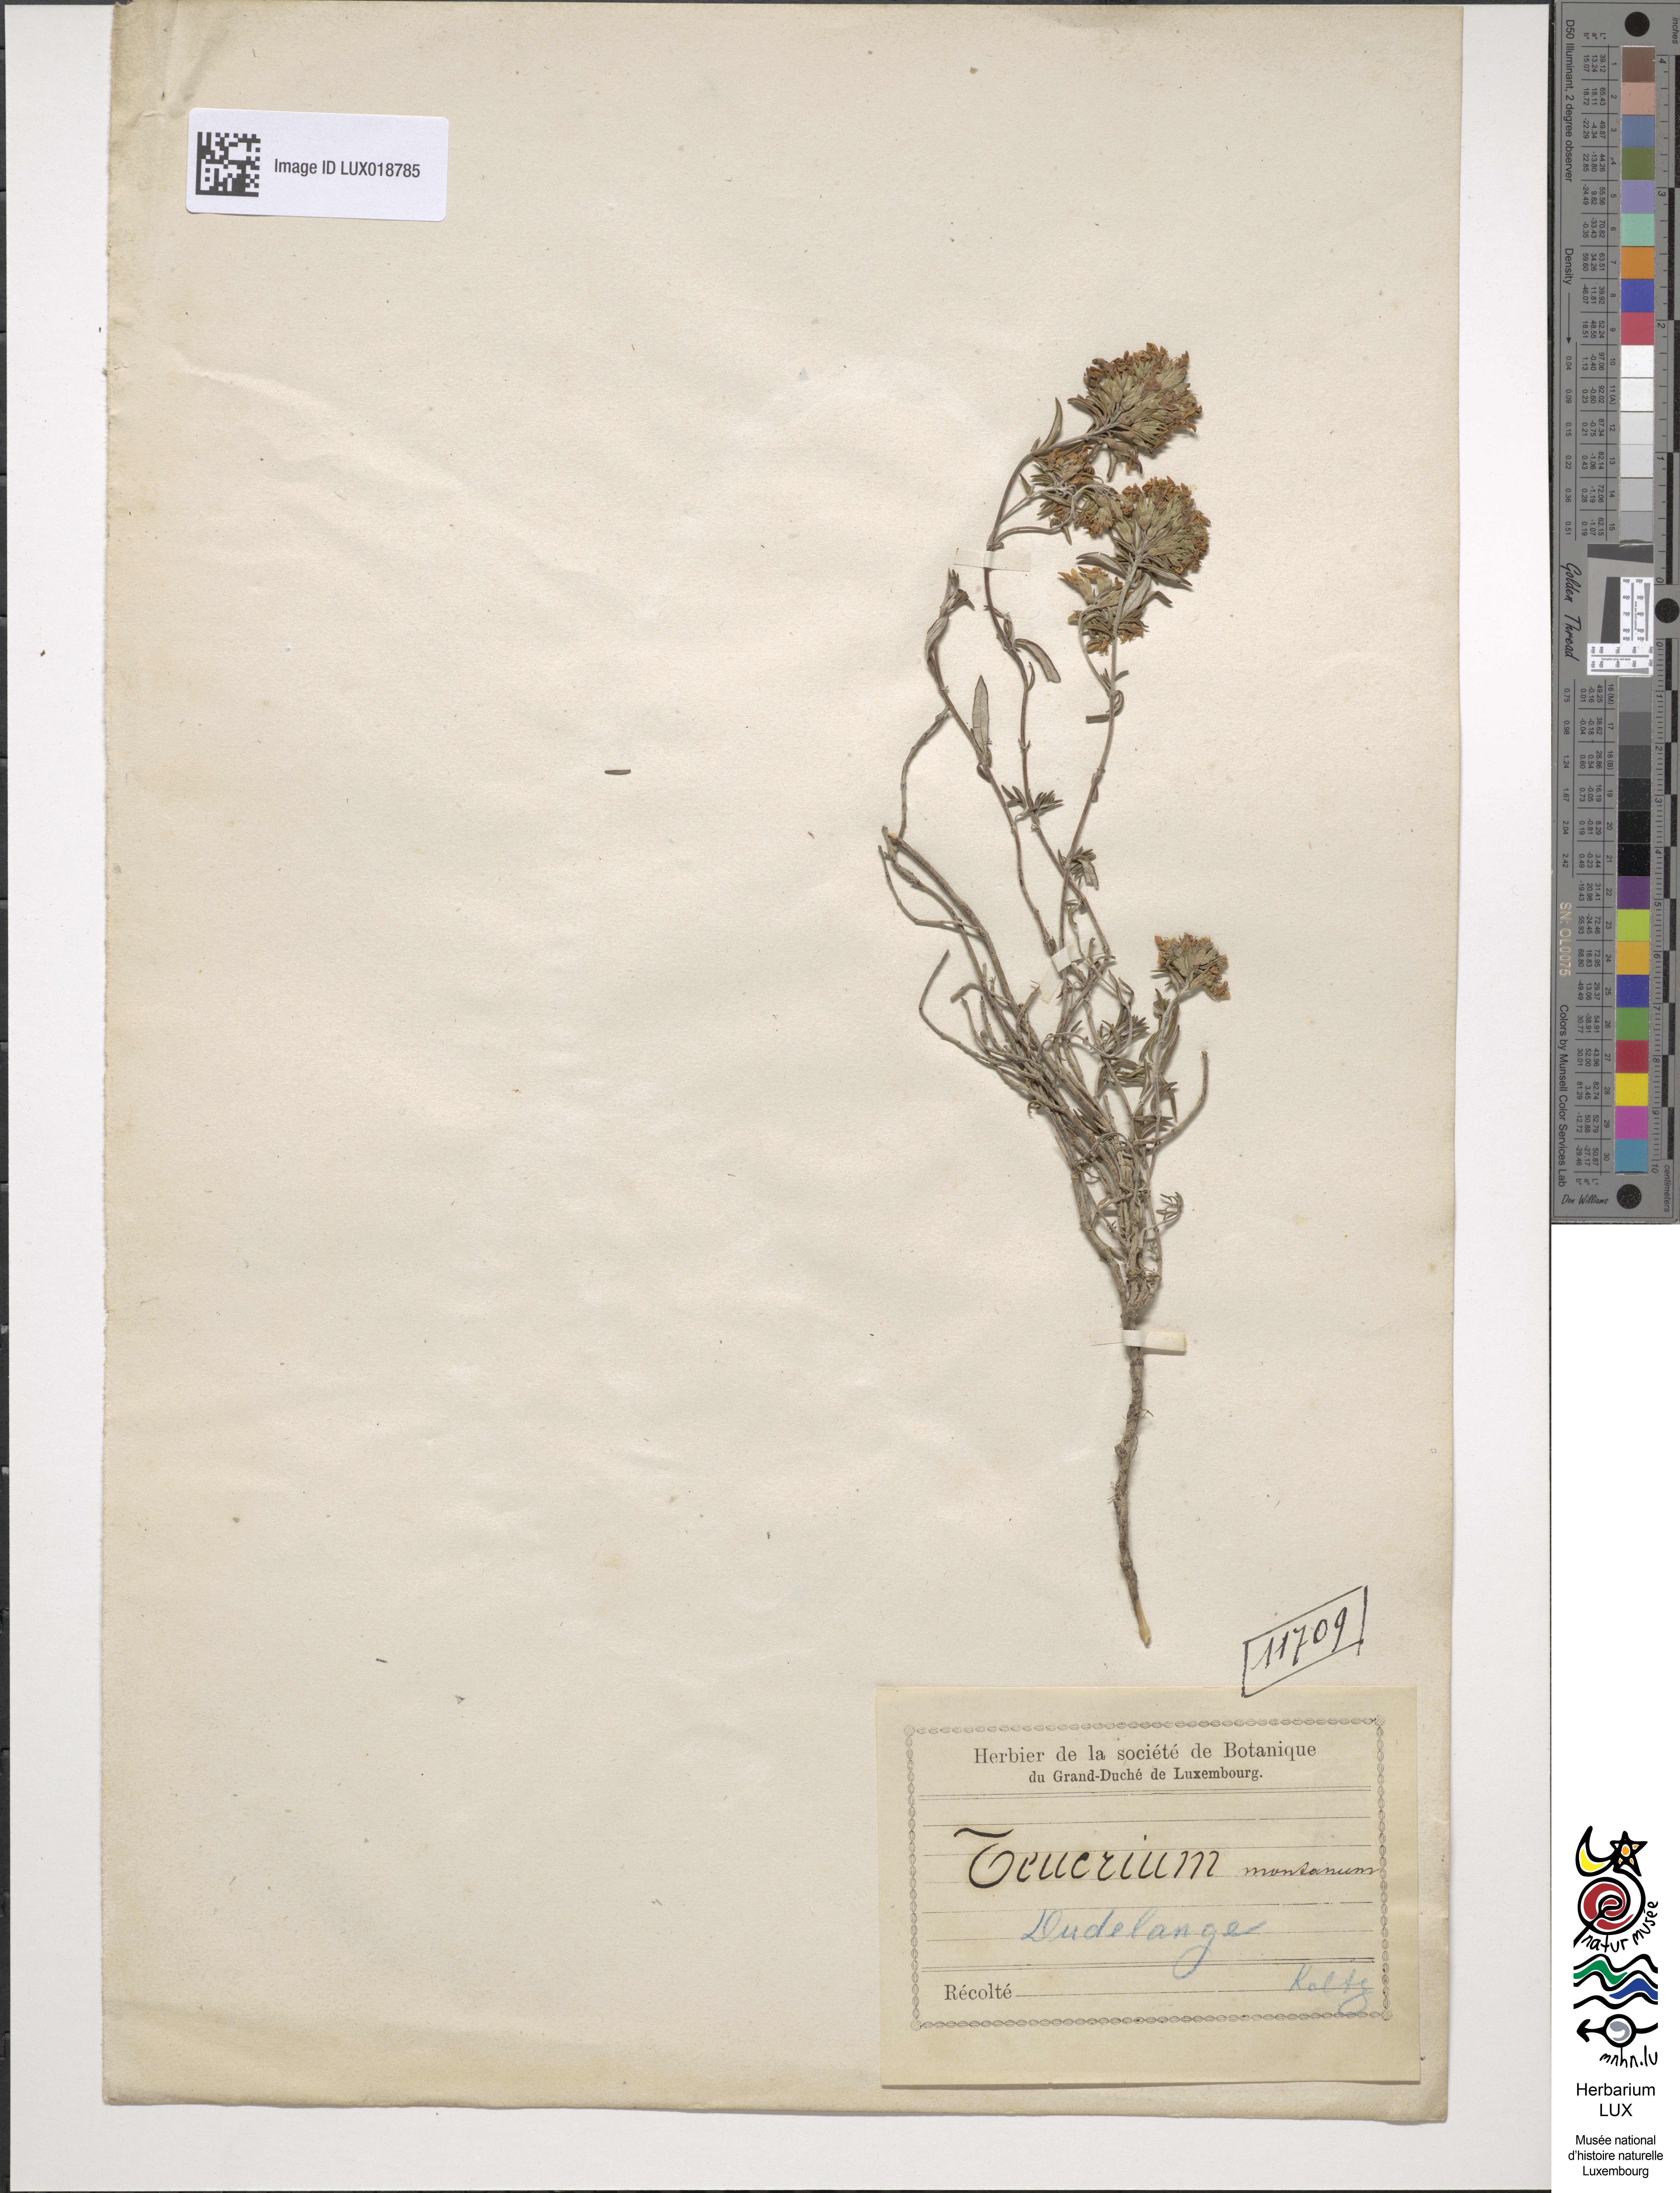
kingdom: Plantae
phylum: Tracheophyta
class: Magnoliopsida
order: Lamiales
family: Lamiaceae
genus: Teucrium
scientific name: Teucrium montanum
